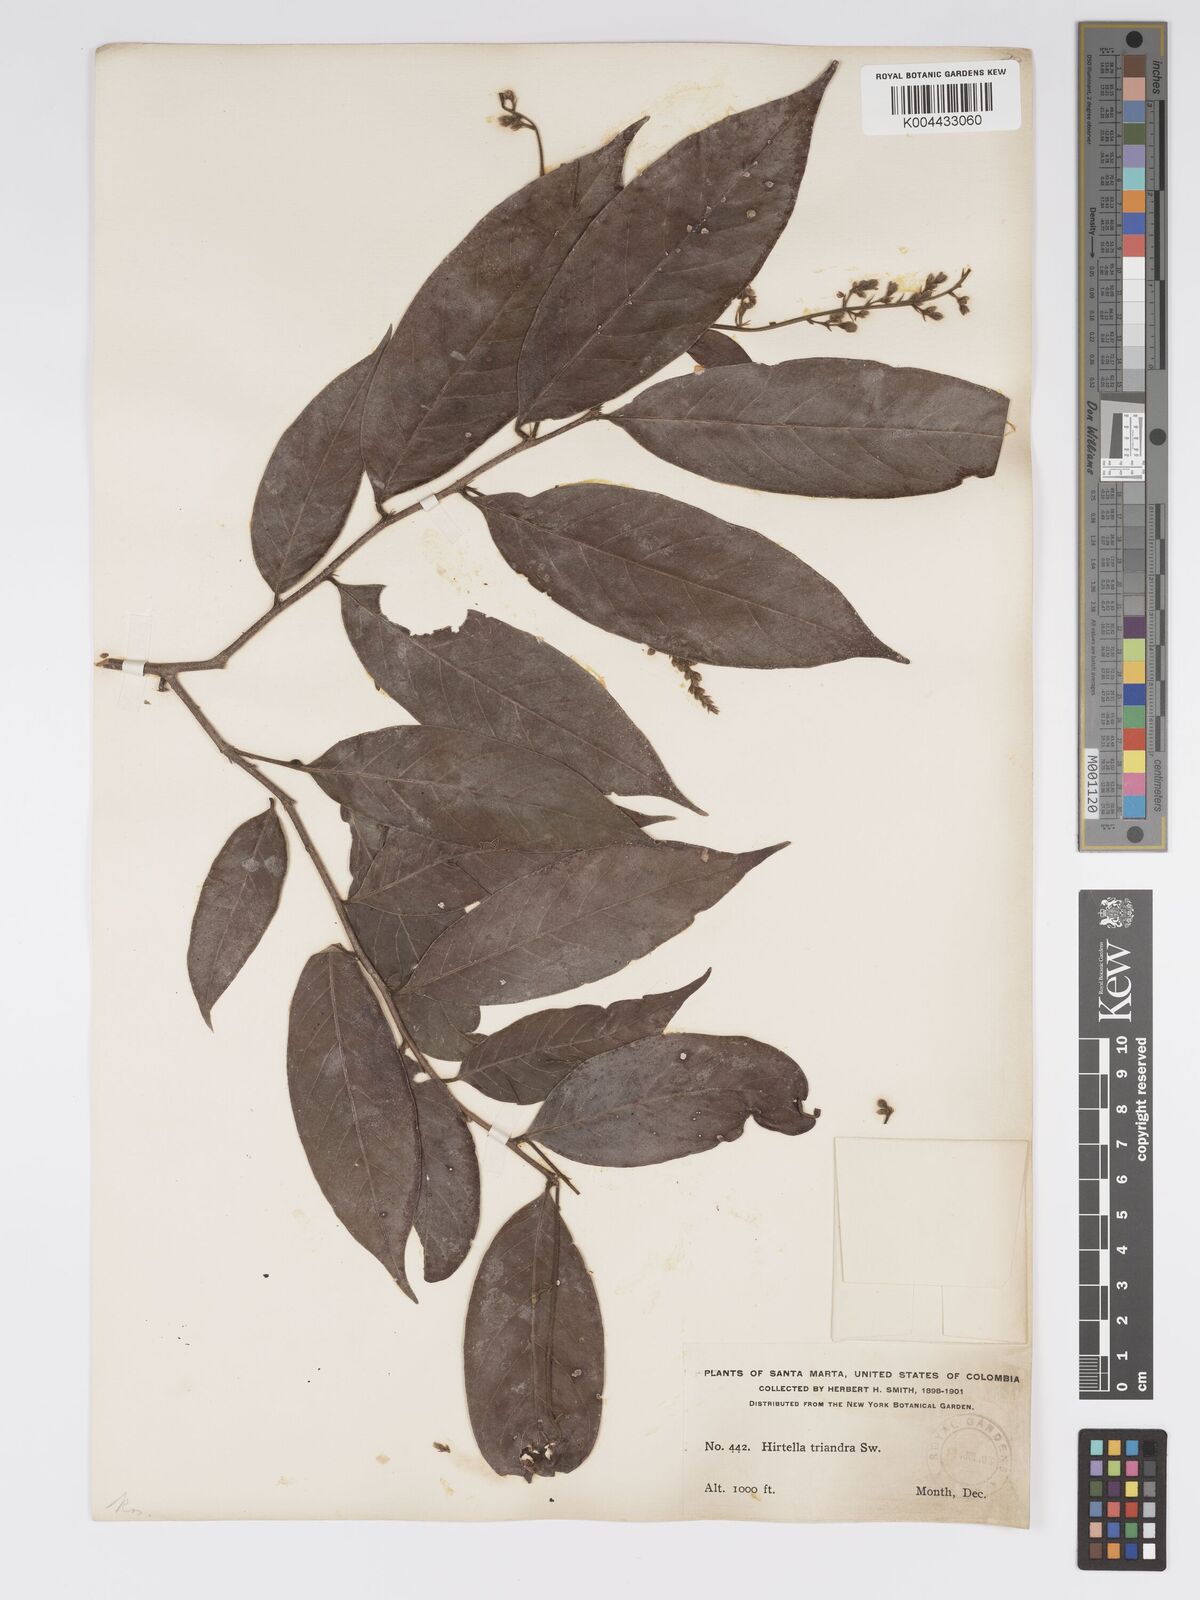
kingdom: Plantae
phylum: Tracheophyta
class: Magnoliopsida
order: Malpighiales
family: Chrysobalanaceae
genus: Hirtella
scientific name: Hirtella triandra
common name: Hairy plum
